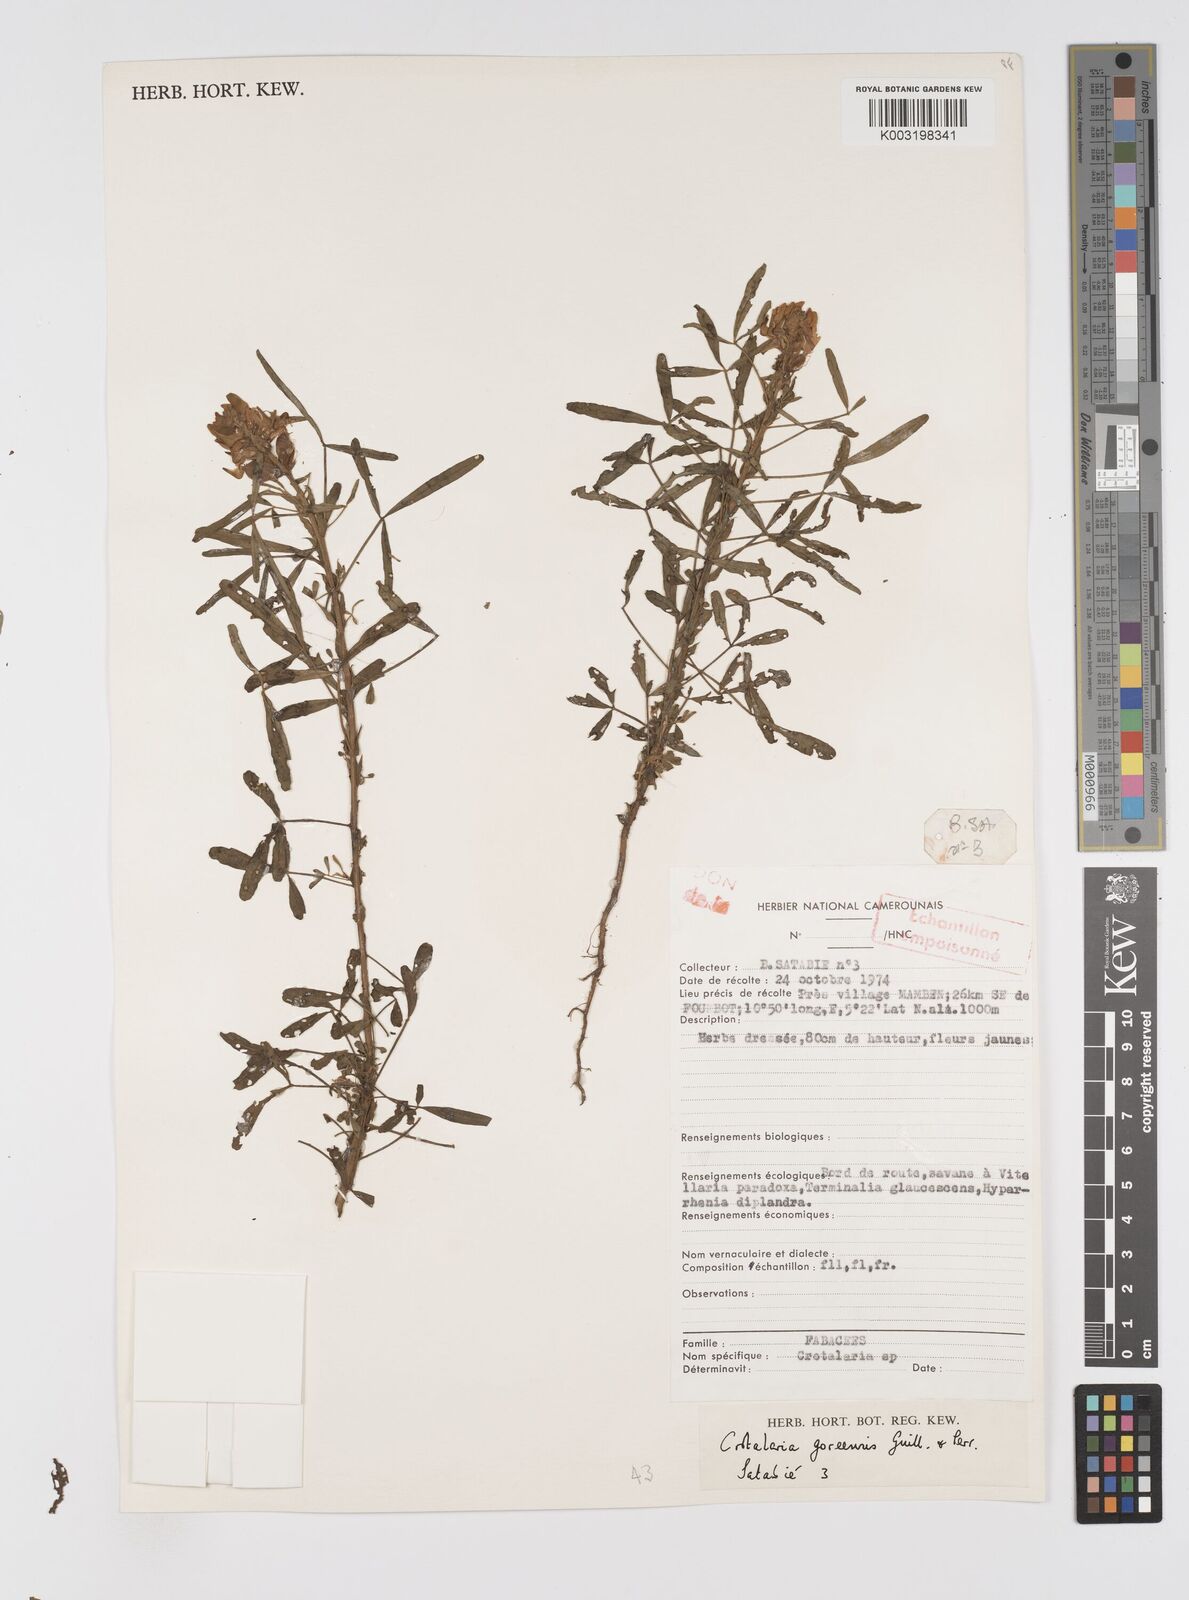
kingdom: Plantae
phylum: Tracheophyta
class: Magnoliopsida
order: Fabales
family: Fabaceae
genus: Crotalaria
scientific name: Crotalaria goreensis
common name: Gambia-pea
